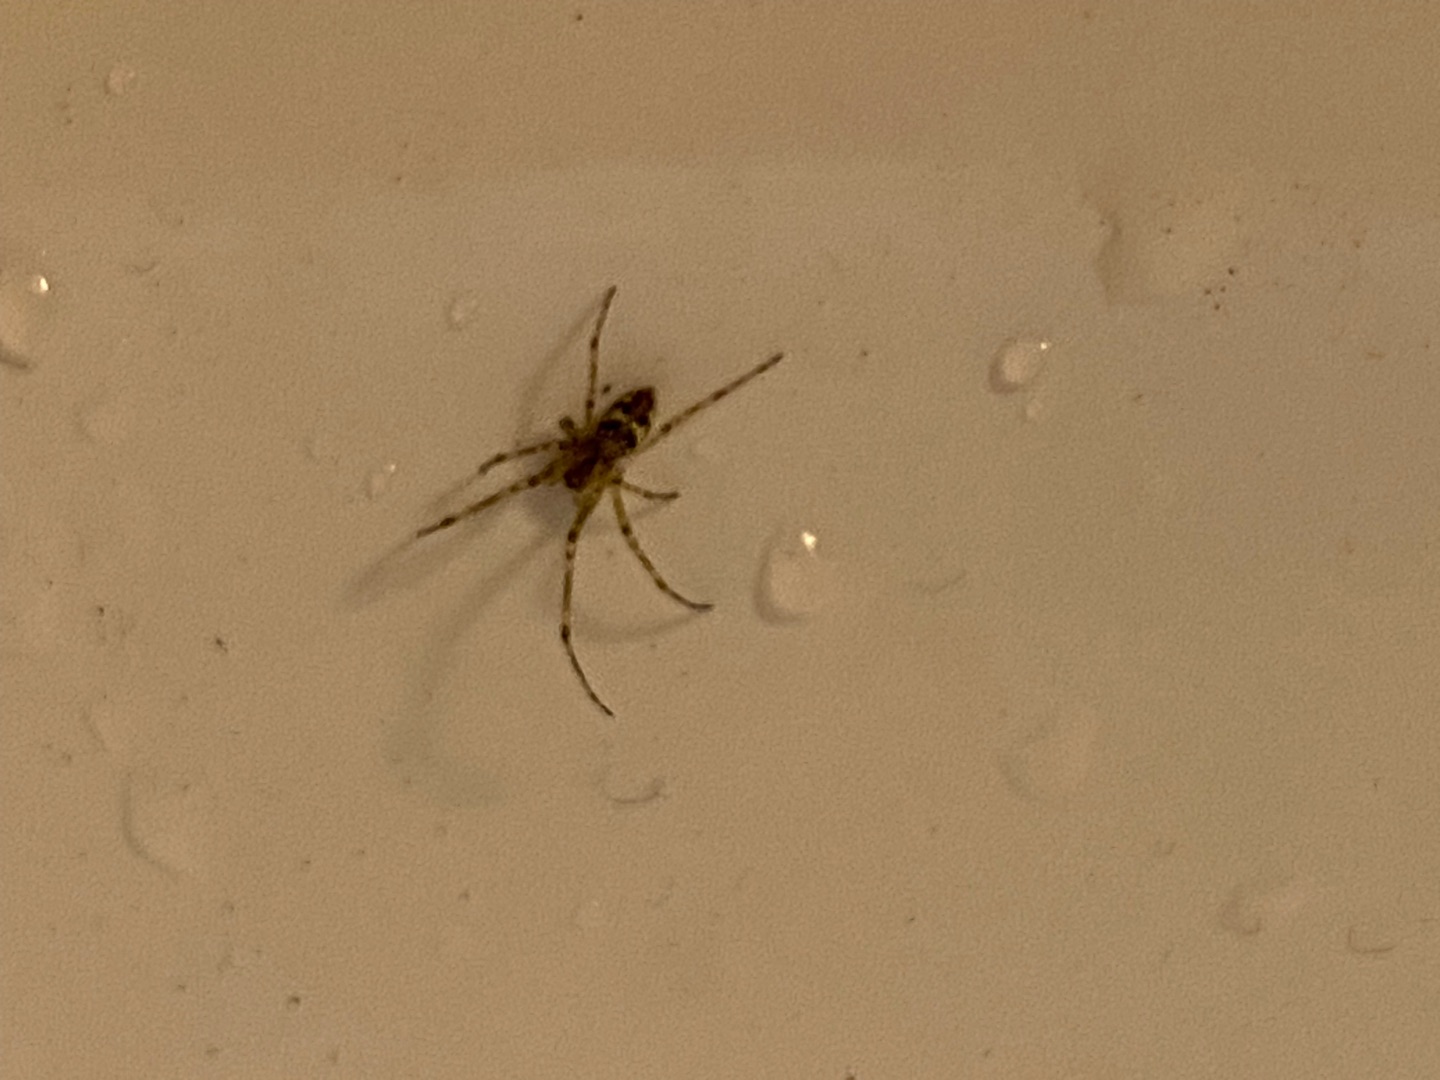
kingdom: Animalia
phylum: Arthropoda
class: Arachnida
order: Araneae
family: Tetragnathidae
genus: Tetragnatha
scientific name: Tetragnatha obtusa
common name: Pukkelrygget stavedderkop
